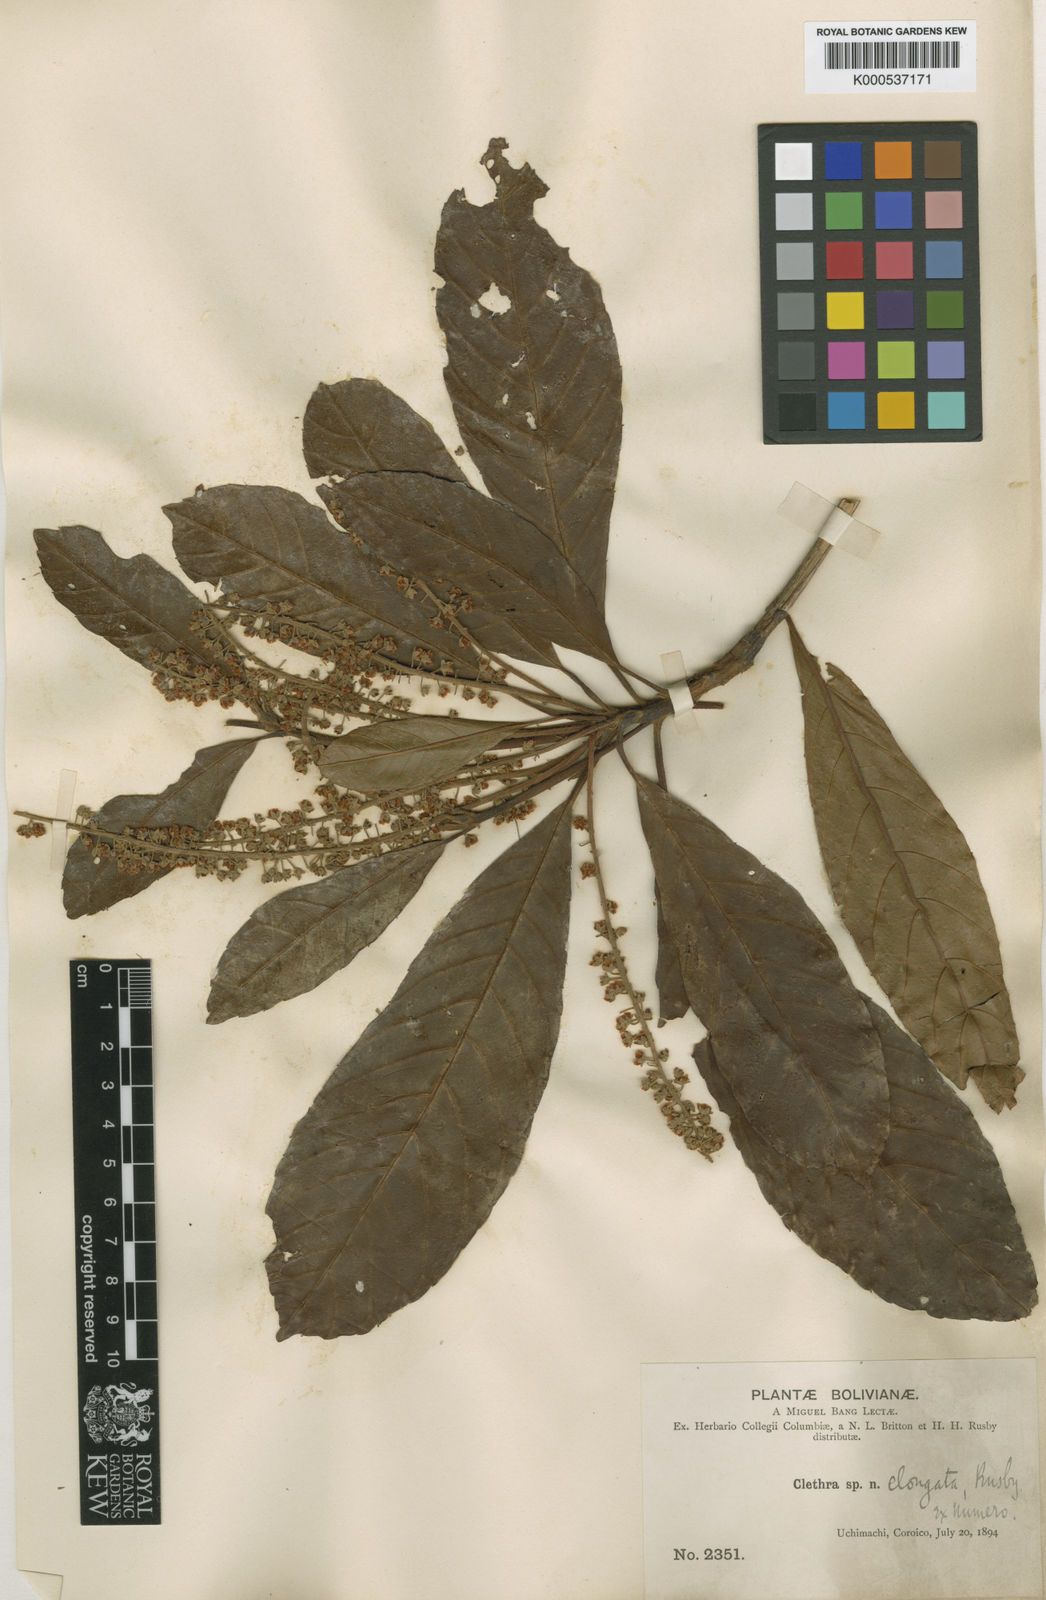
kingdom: Plantae
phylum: Tracheophyta
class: Magnoliopsida
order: Ericales
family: Clethraceae
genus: Clethra
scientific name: Clethra elongata
